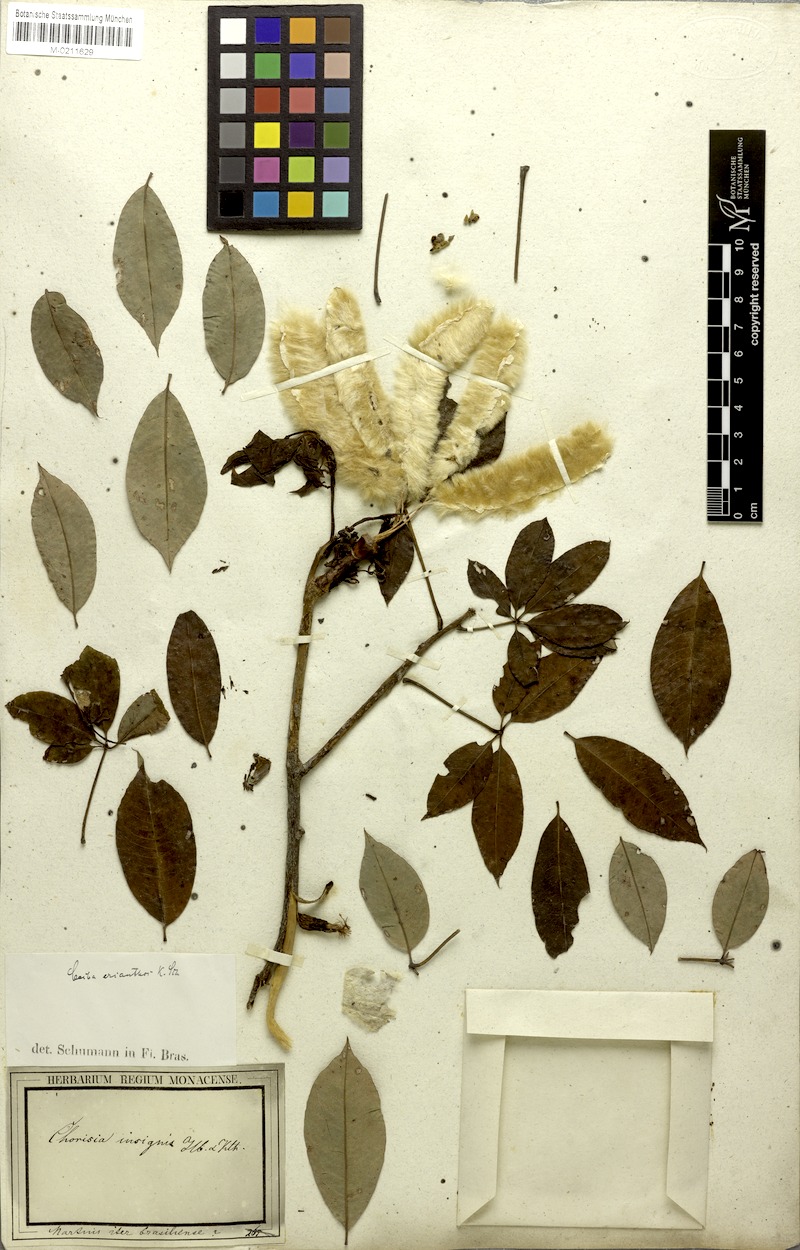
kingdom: Plantae
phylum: Tracheophyta
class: Magnoliopsida
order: Malvales
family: Malvaceae
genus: Ceiba
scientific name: Ceiba erianthos
